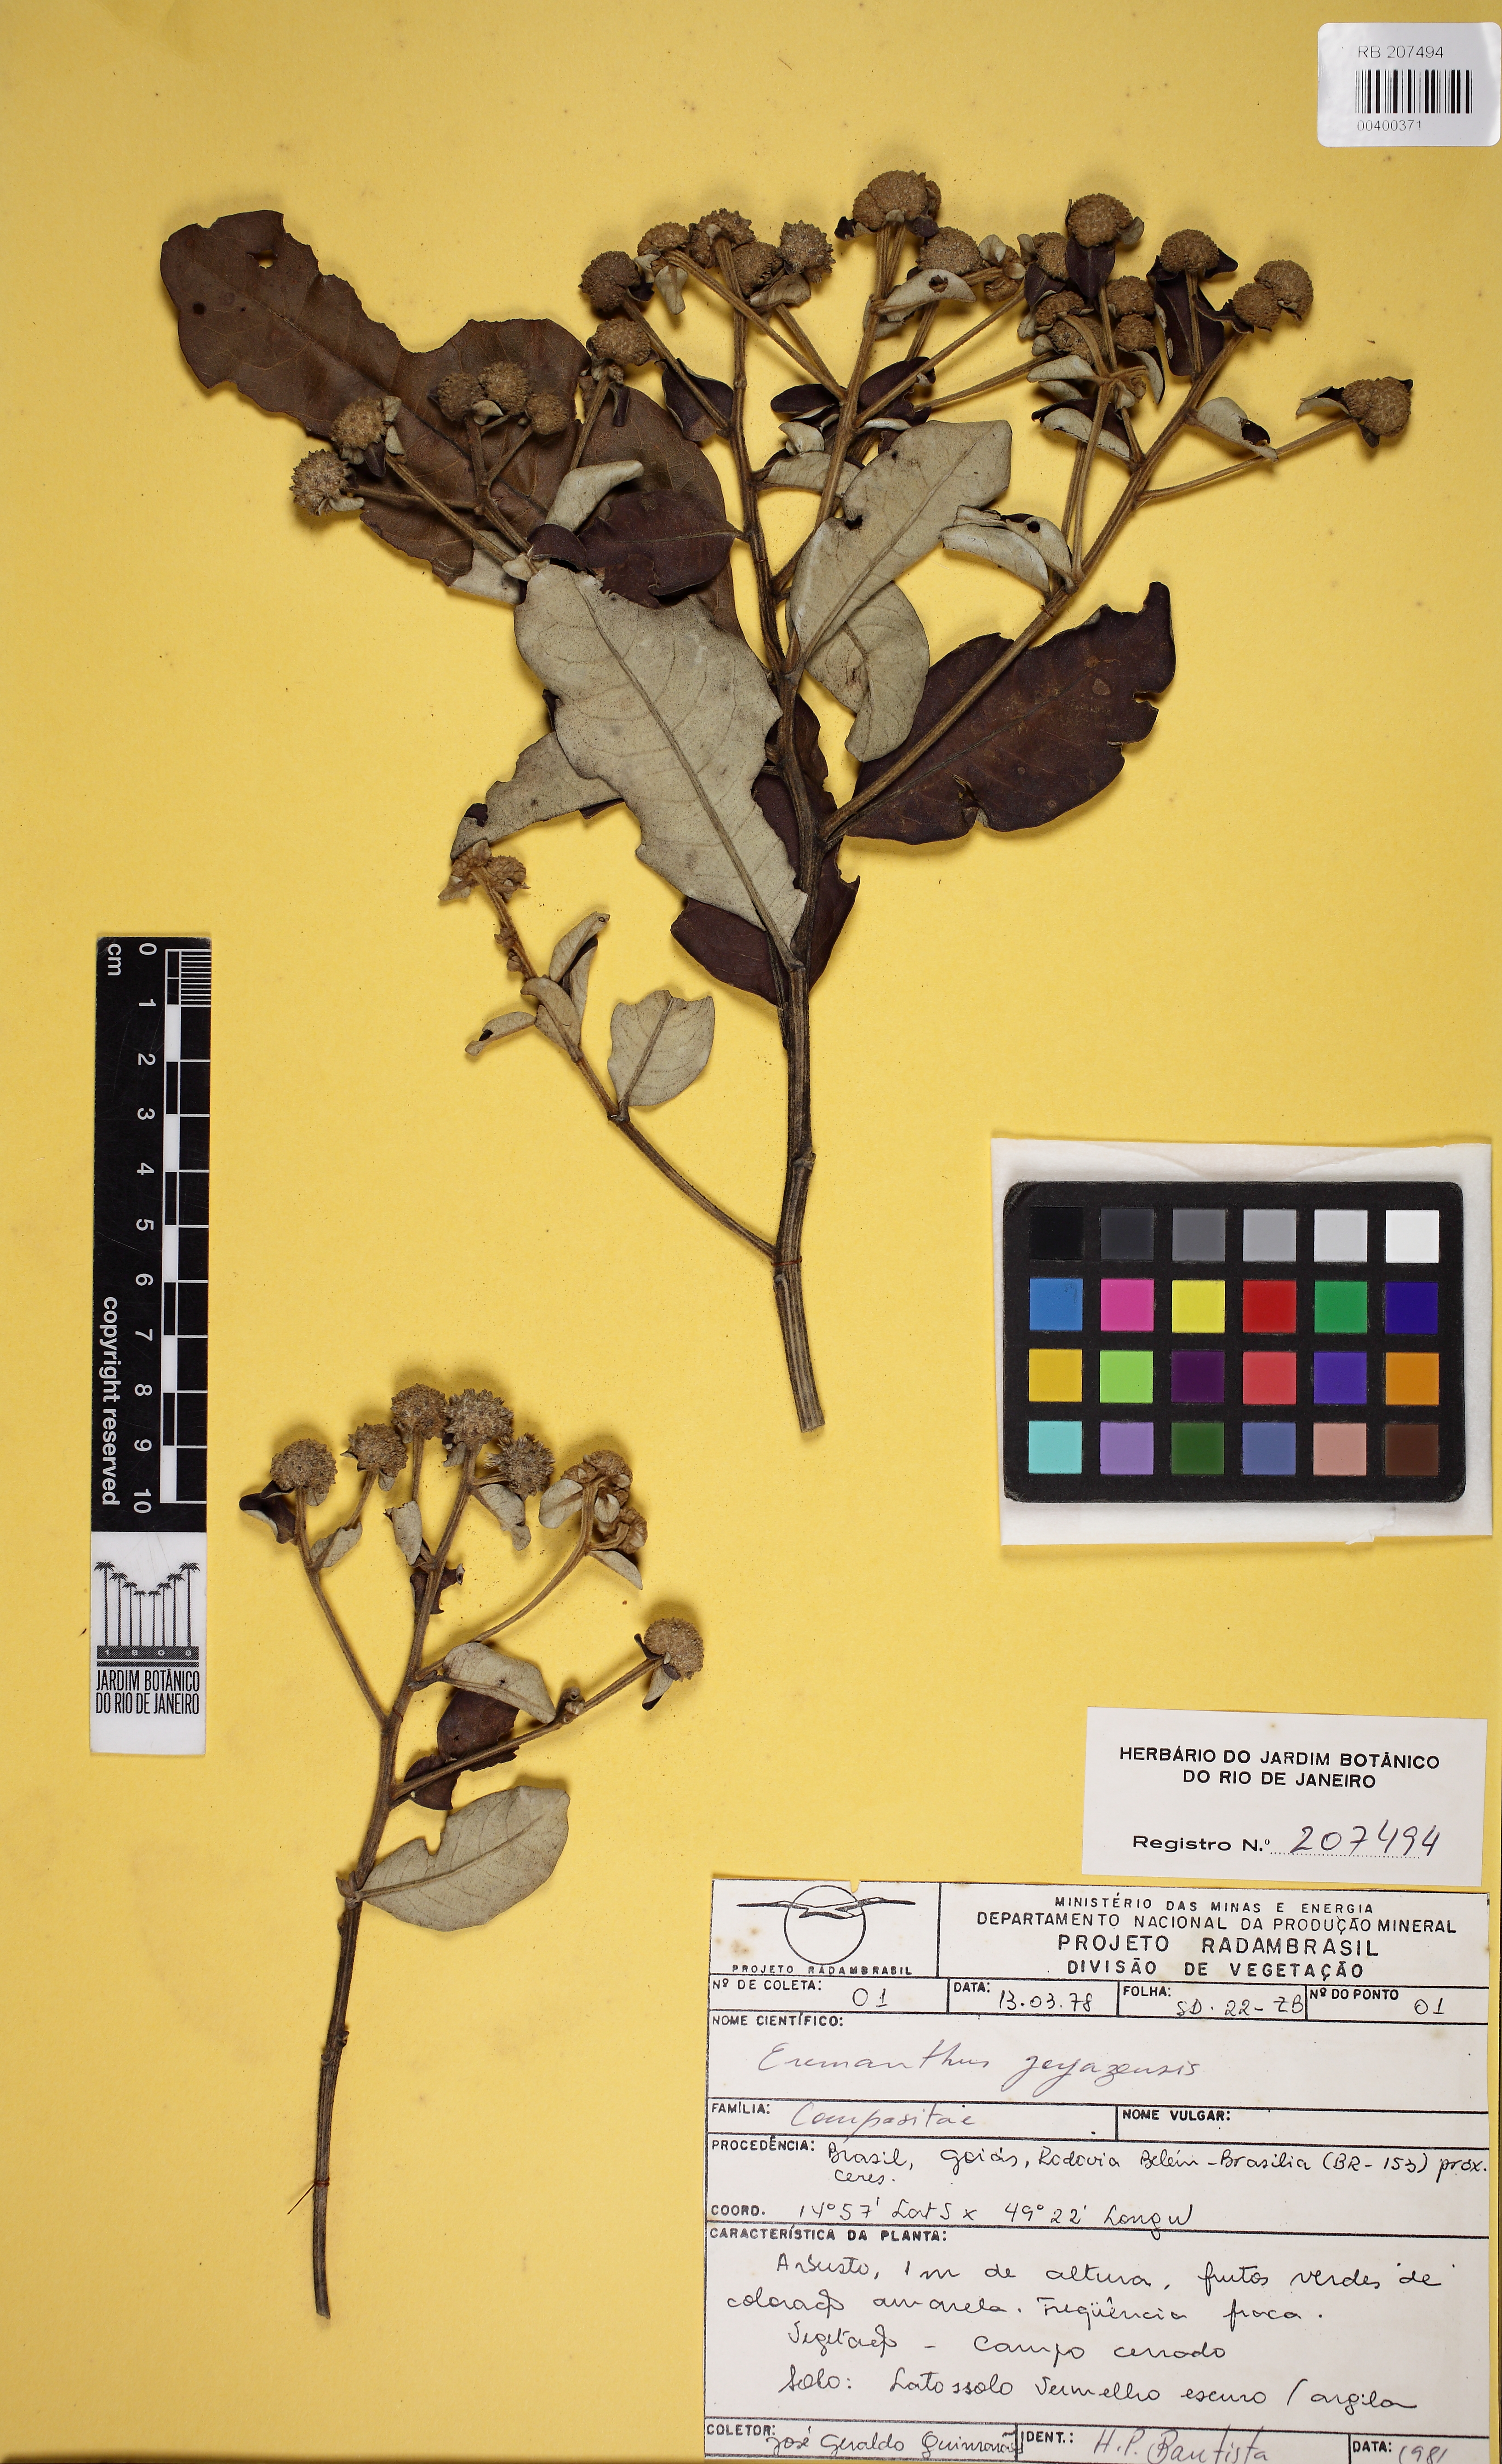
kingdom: Plantae
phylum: Tracheophyta
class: Magnoliopsida
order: Asterales
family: Asteraceae
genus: Eremanthus
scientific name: Eremanthus goyazensis
